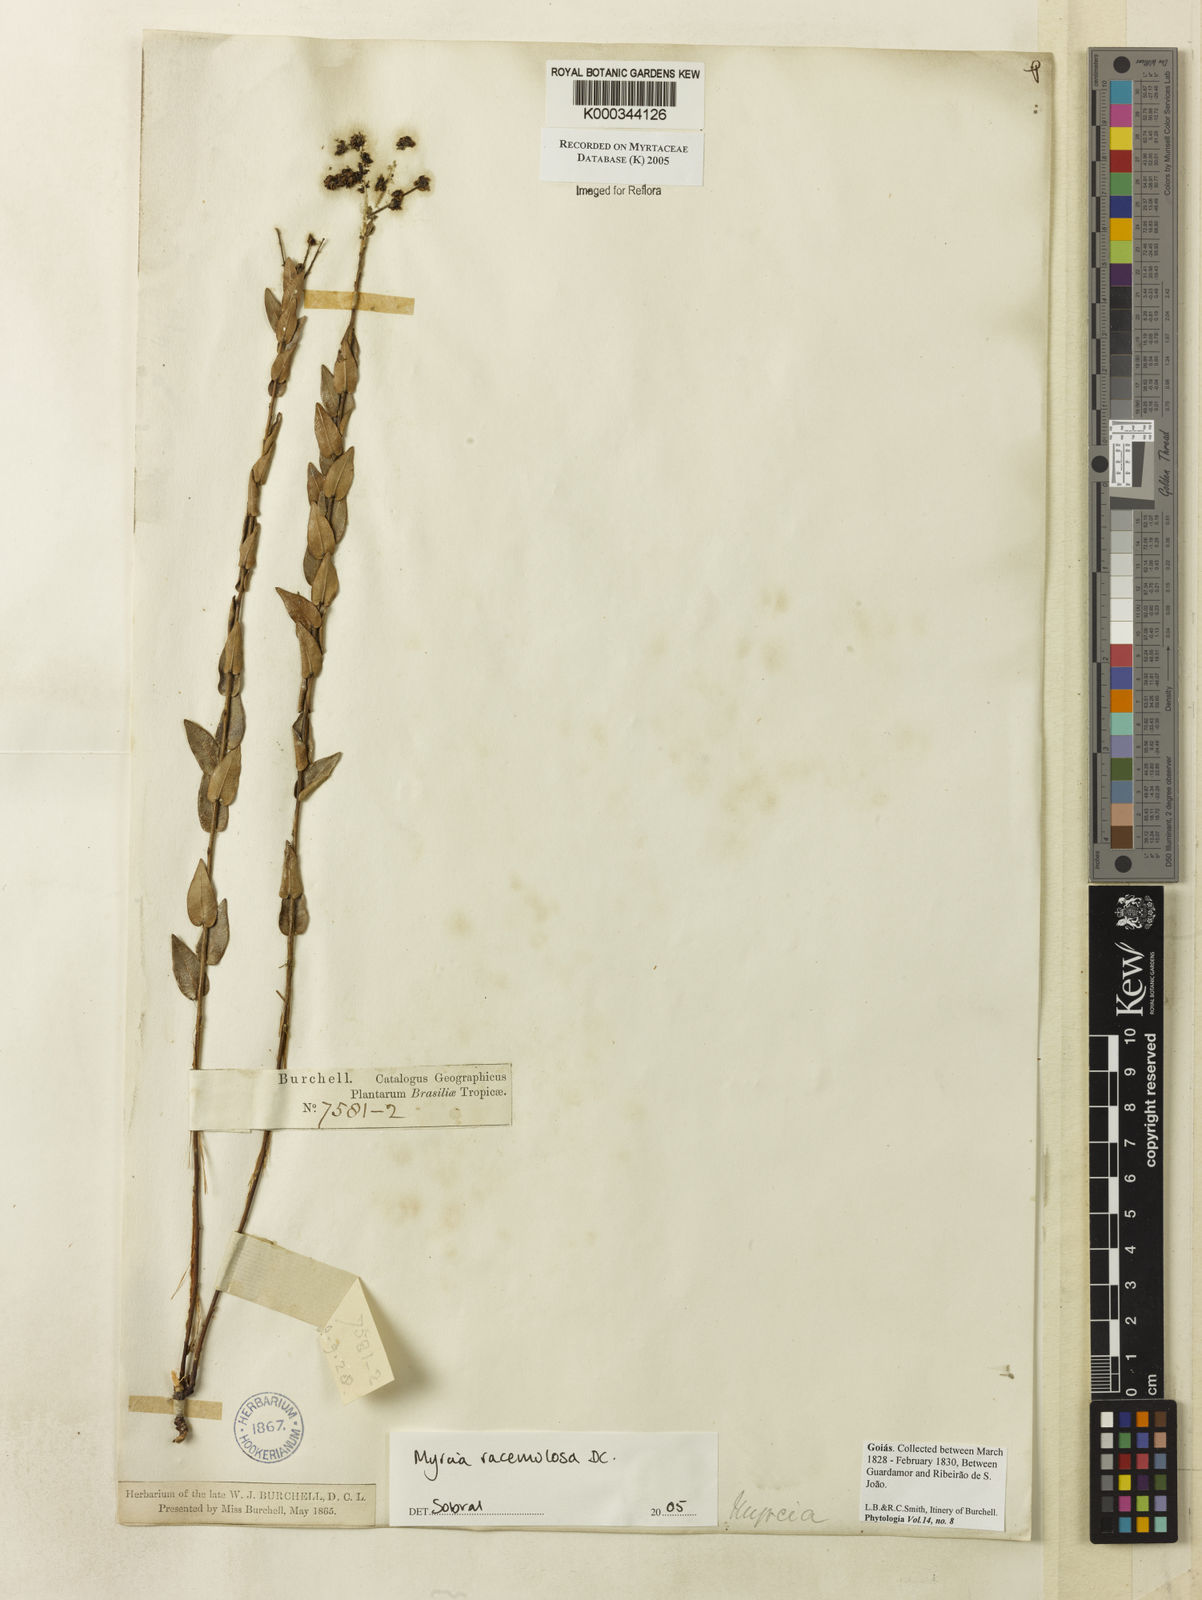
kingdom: Plantae
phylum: Tracheophyta
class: Magnoliopsida
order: Myrtales
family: Myrtaceae
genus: Myrcia
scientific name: Myrcia racemulosa
